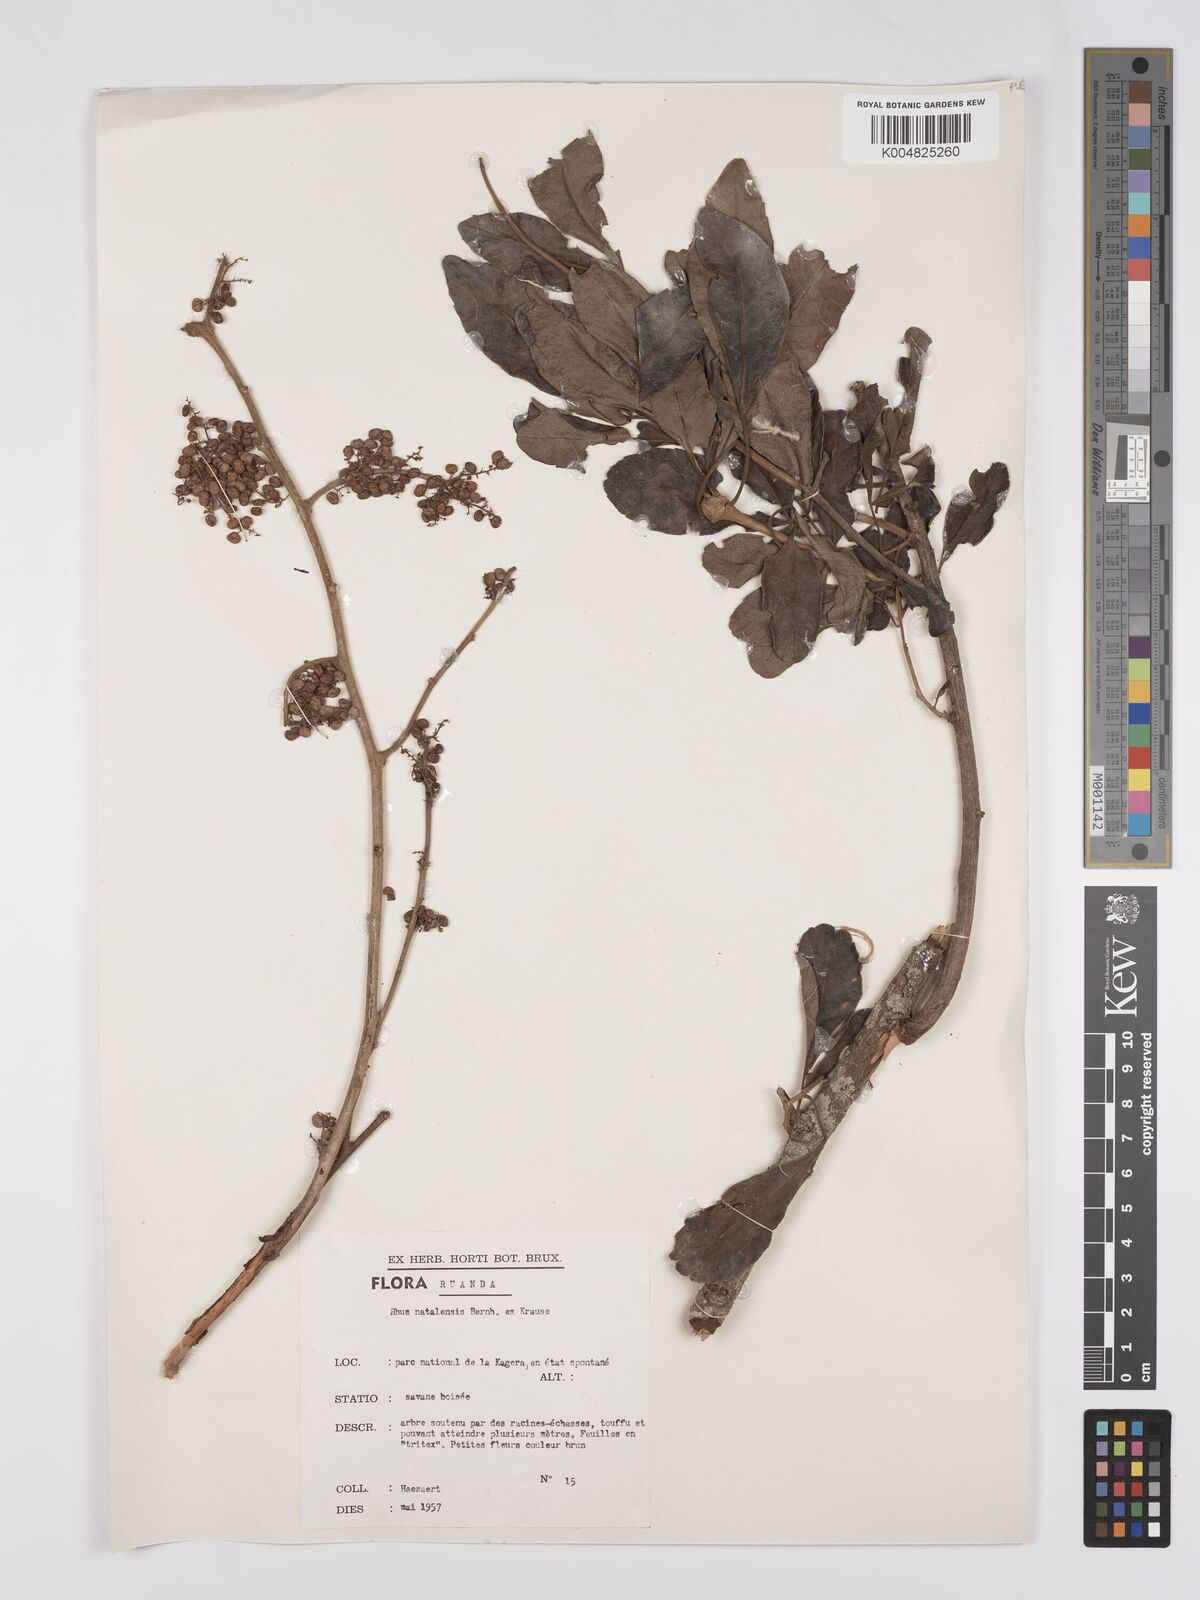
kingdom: Plantae
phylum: Tracheophyta
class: Magnoliopsida
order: Sapindales
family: Anacardiaceae
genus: Searsia
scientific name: Searsia natalensis
